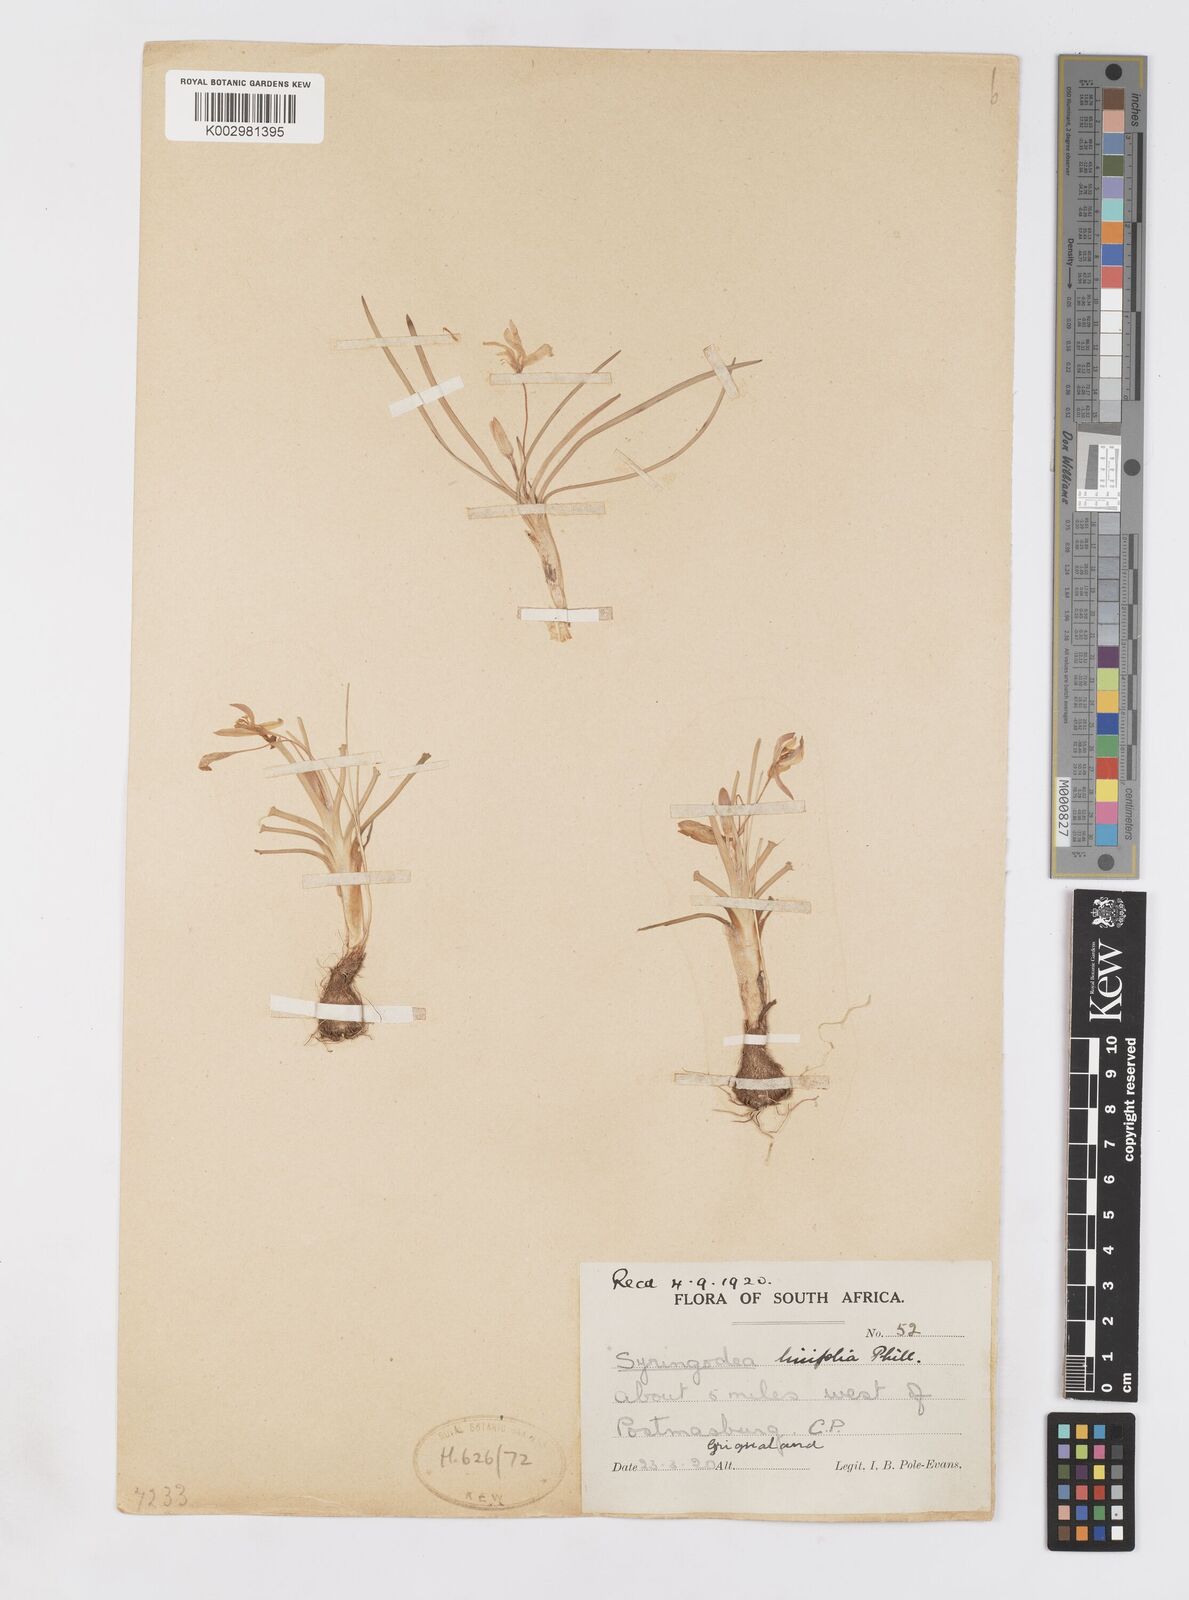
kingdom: Plantae
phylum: Tracheophyta
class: Liliopsida
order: Asparagales
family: Iridaceae
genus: Duthiastrum
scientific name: Duthiastrum linifolium
